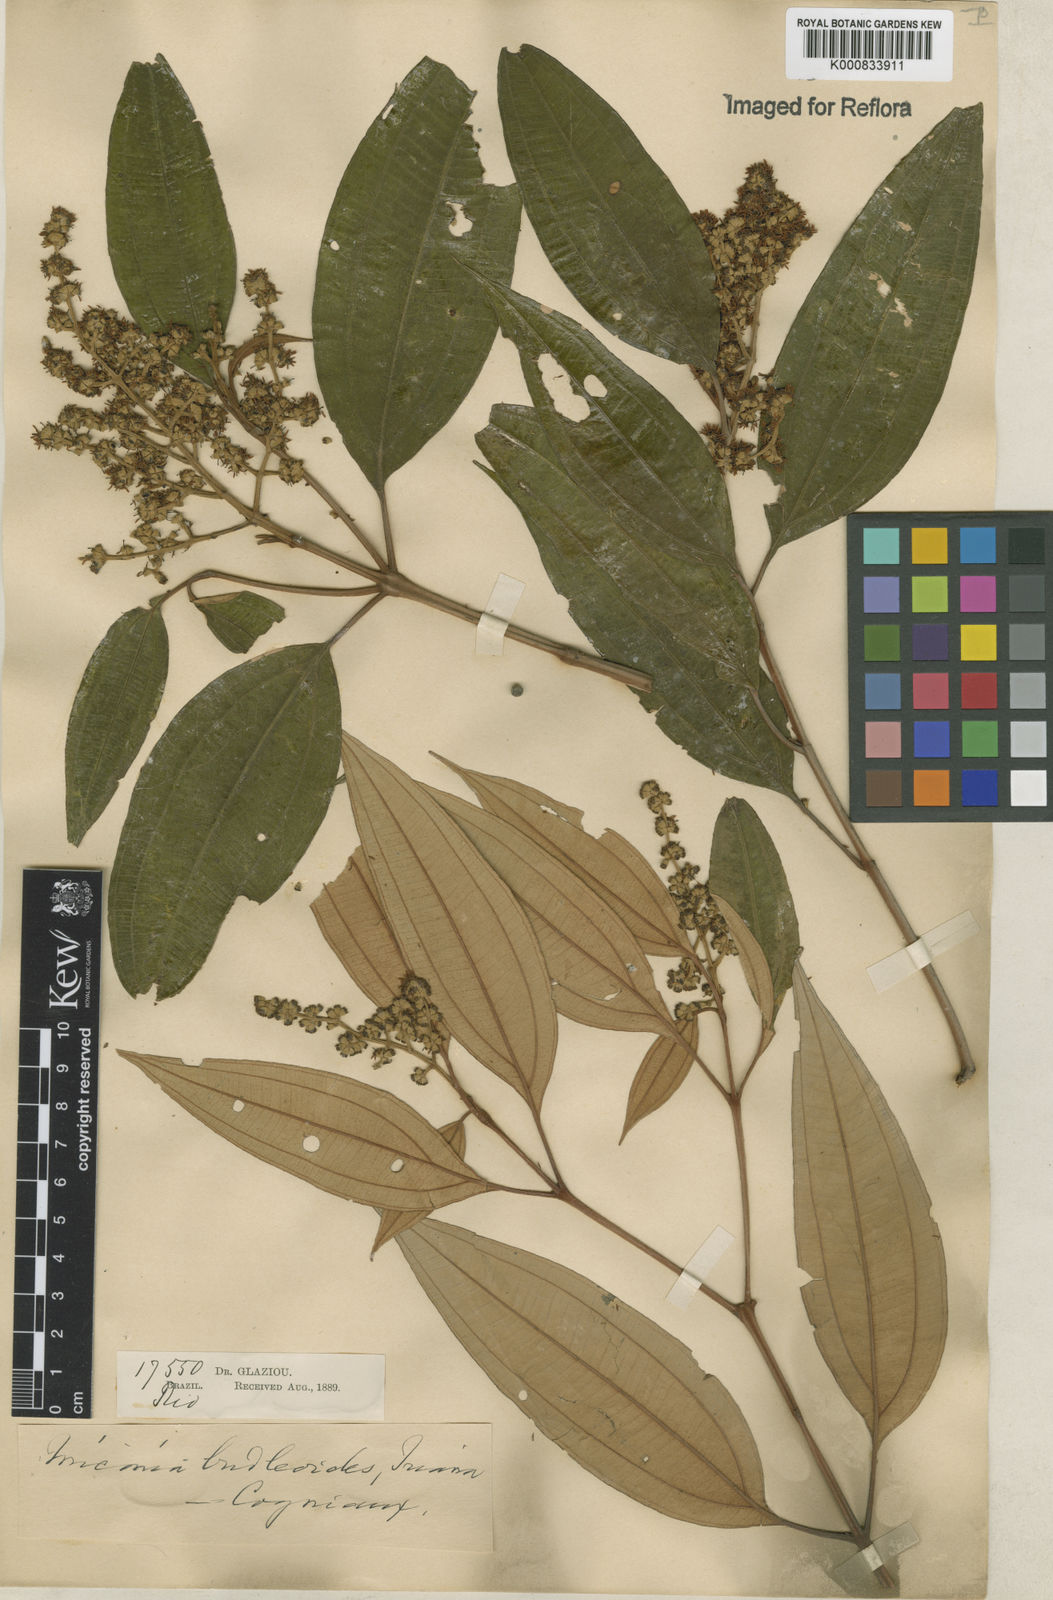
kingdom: Plantae
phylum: Tracheophyta
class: Magnoliopsida
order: Myrtales
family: Melastomataceae
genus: Miconia
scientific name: Miconia buddlejoides
